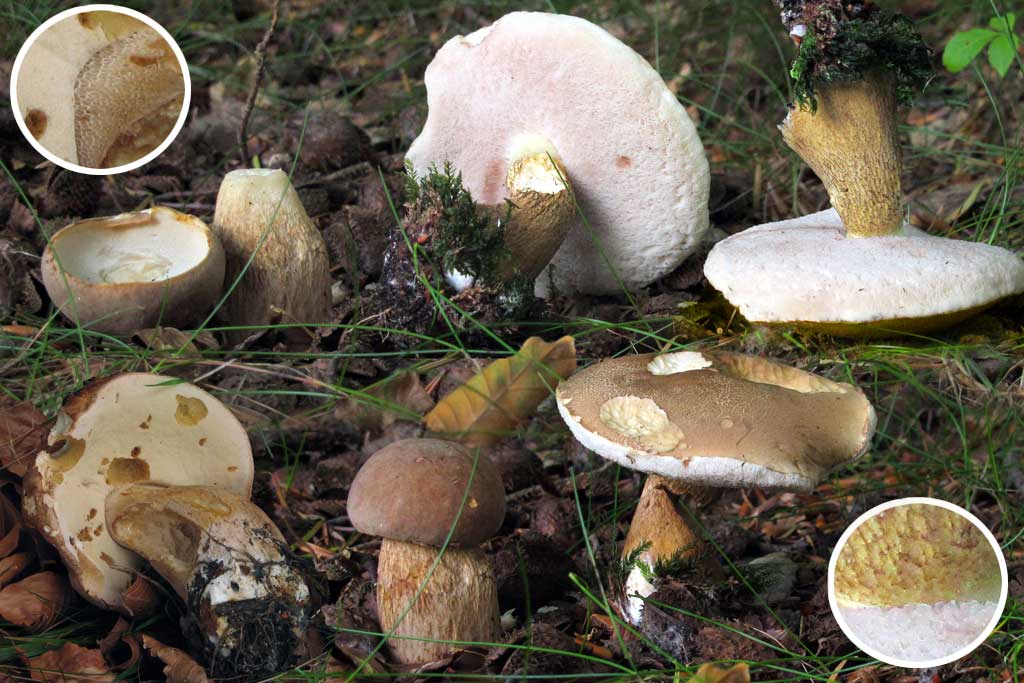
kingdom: Fungi
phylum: Basidiomycota
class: Agaricomycetes
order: Boletales
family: Boletaceae
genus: Tylopilus
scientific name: Tylopilus felleus
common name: galderørhat
